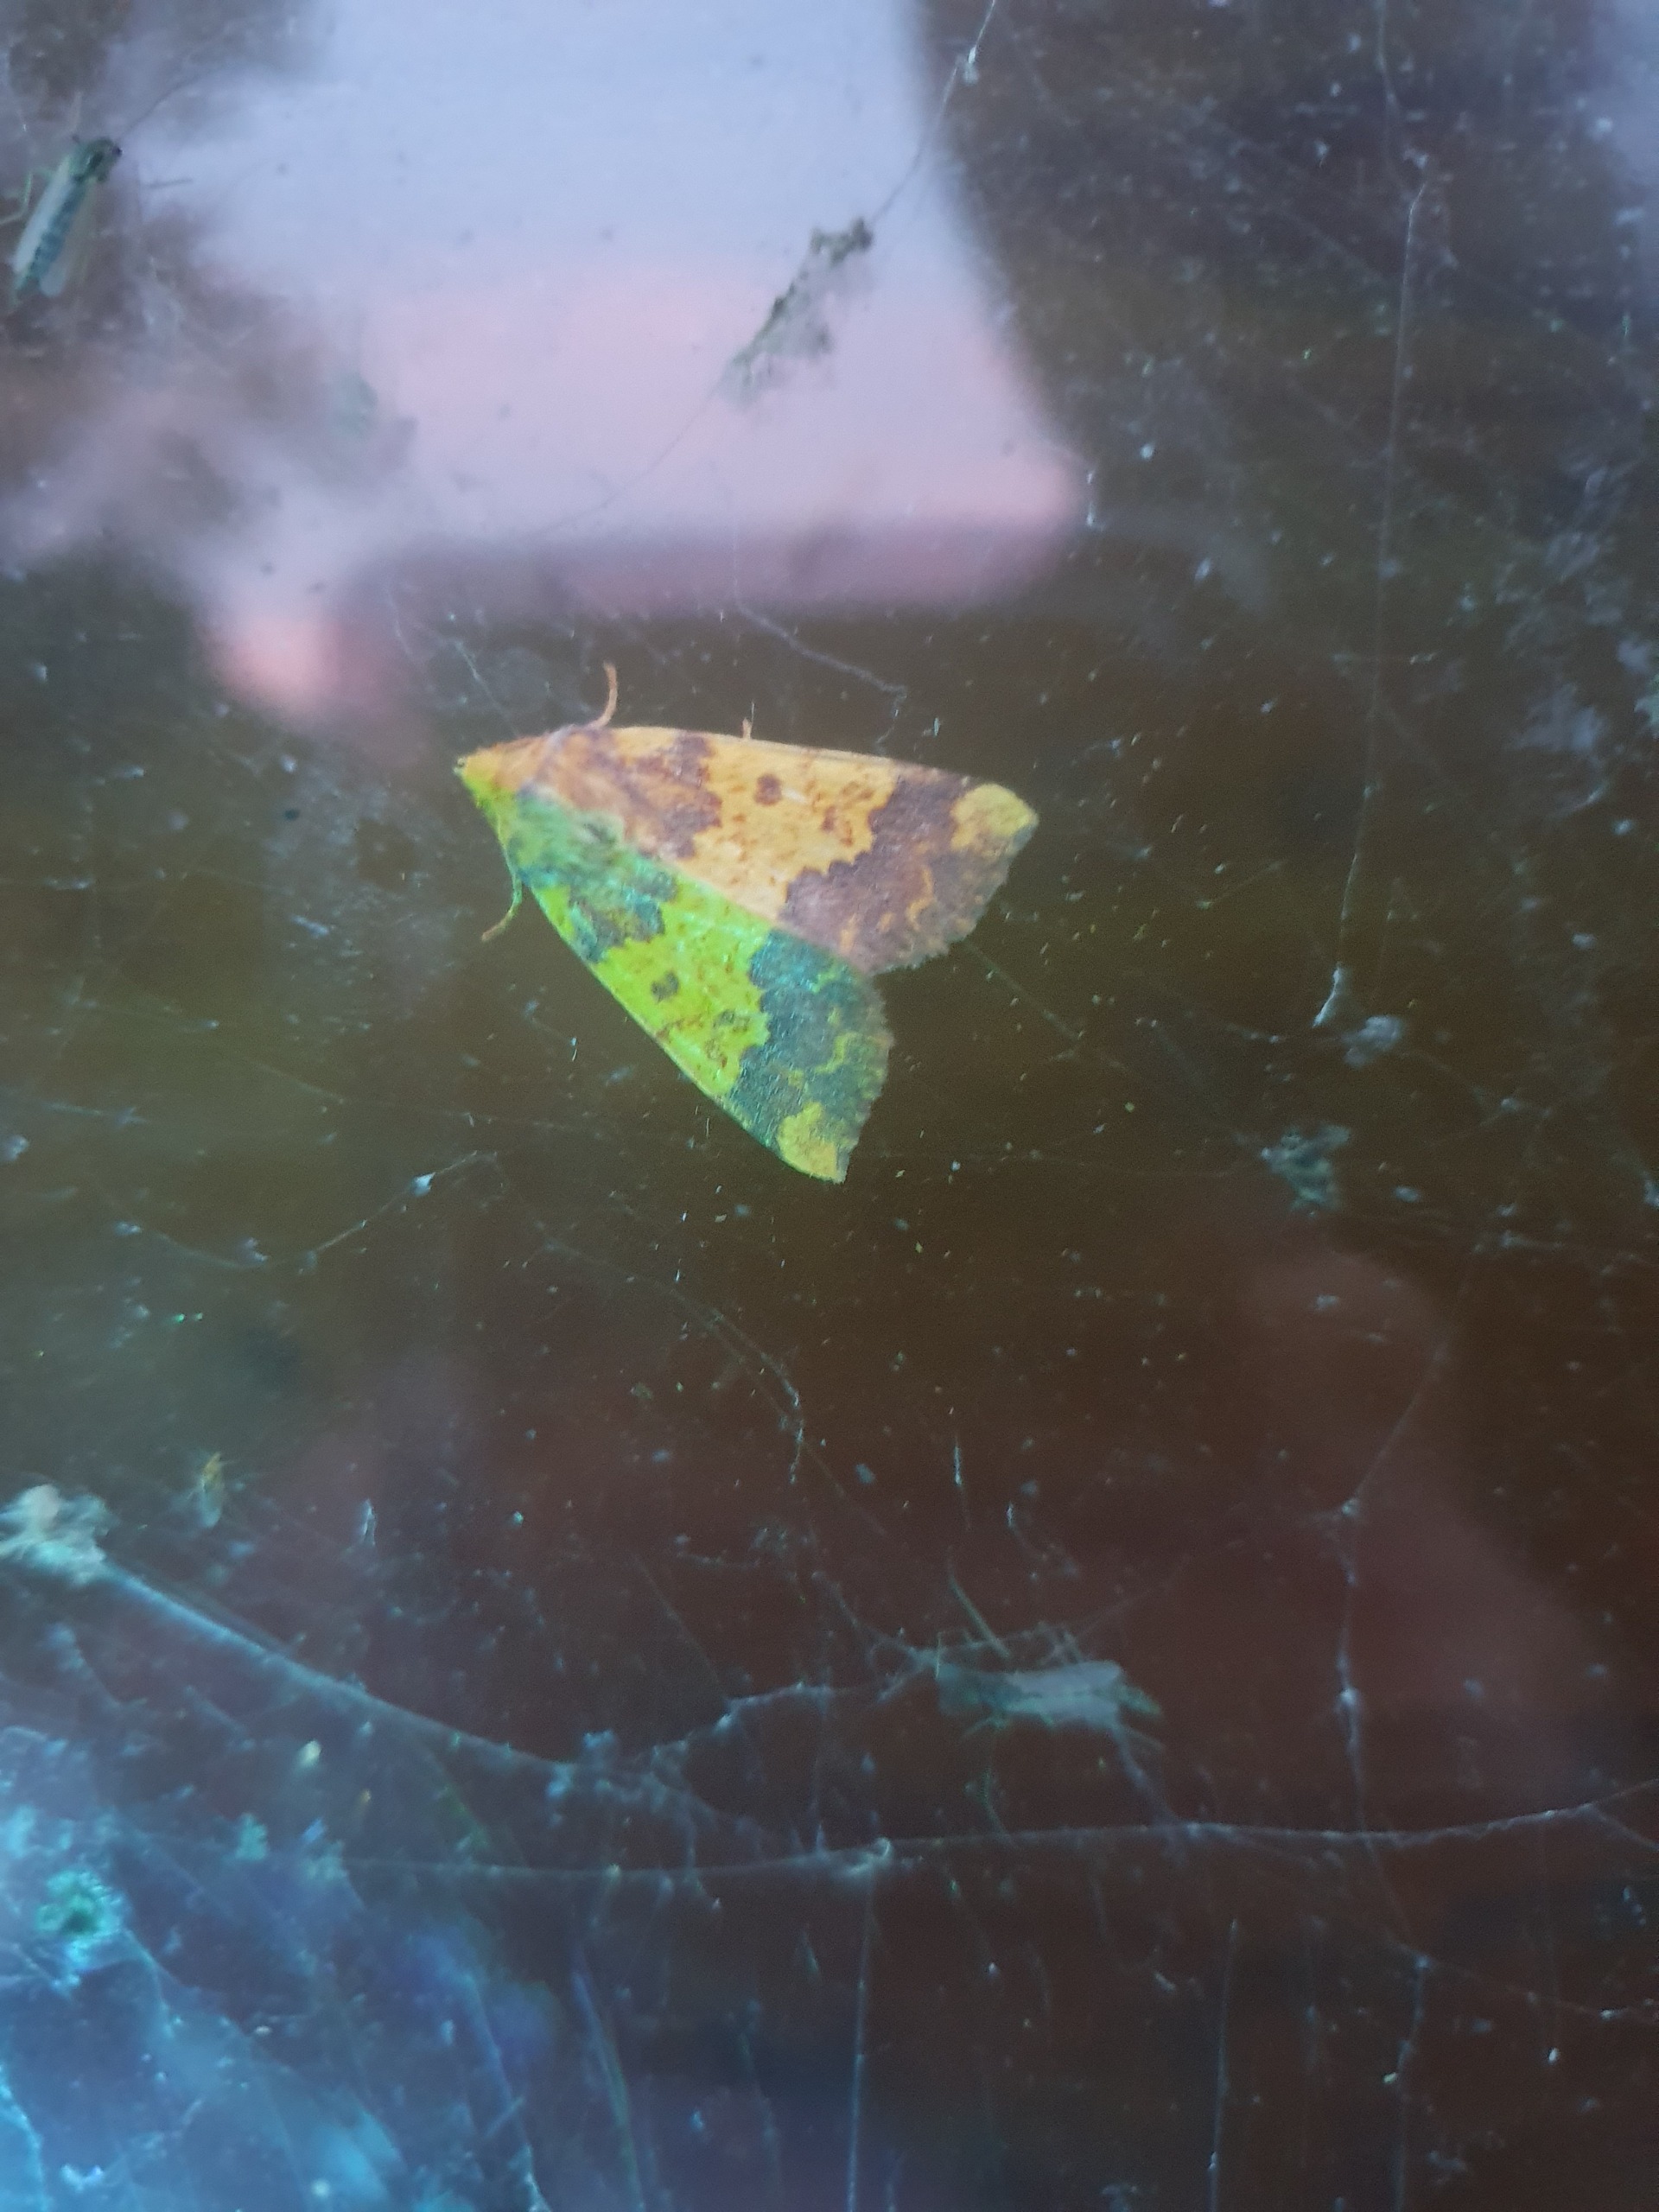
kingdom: Animalia
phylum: Arthropoda
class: Insecta
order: Lepidoptera
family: Noctuidae
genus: Tiliacea
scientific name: Tiliacea aurago
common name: Guldugle
